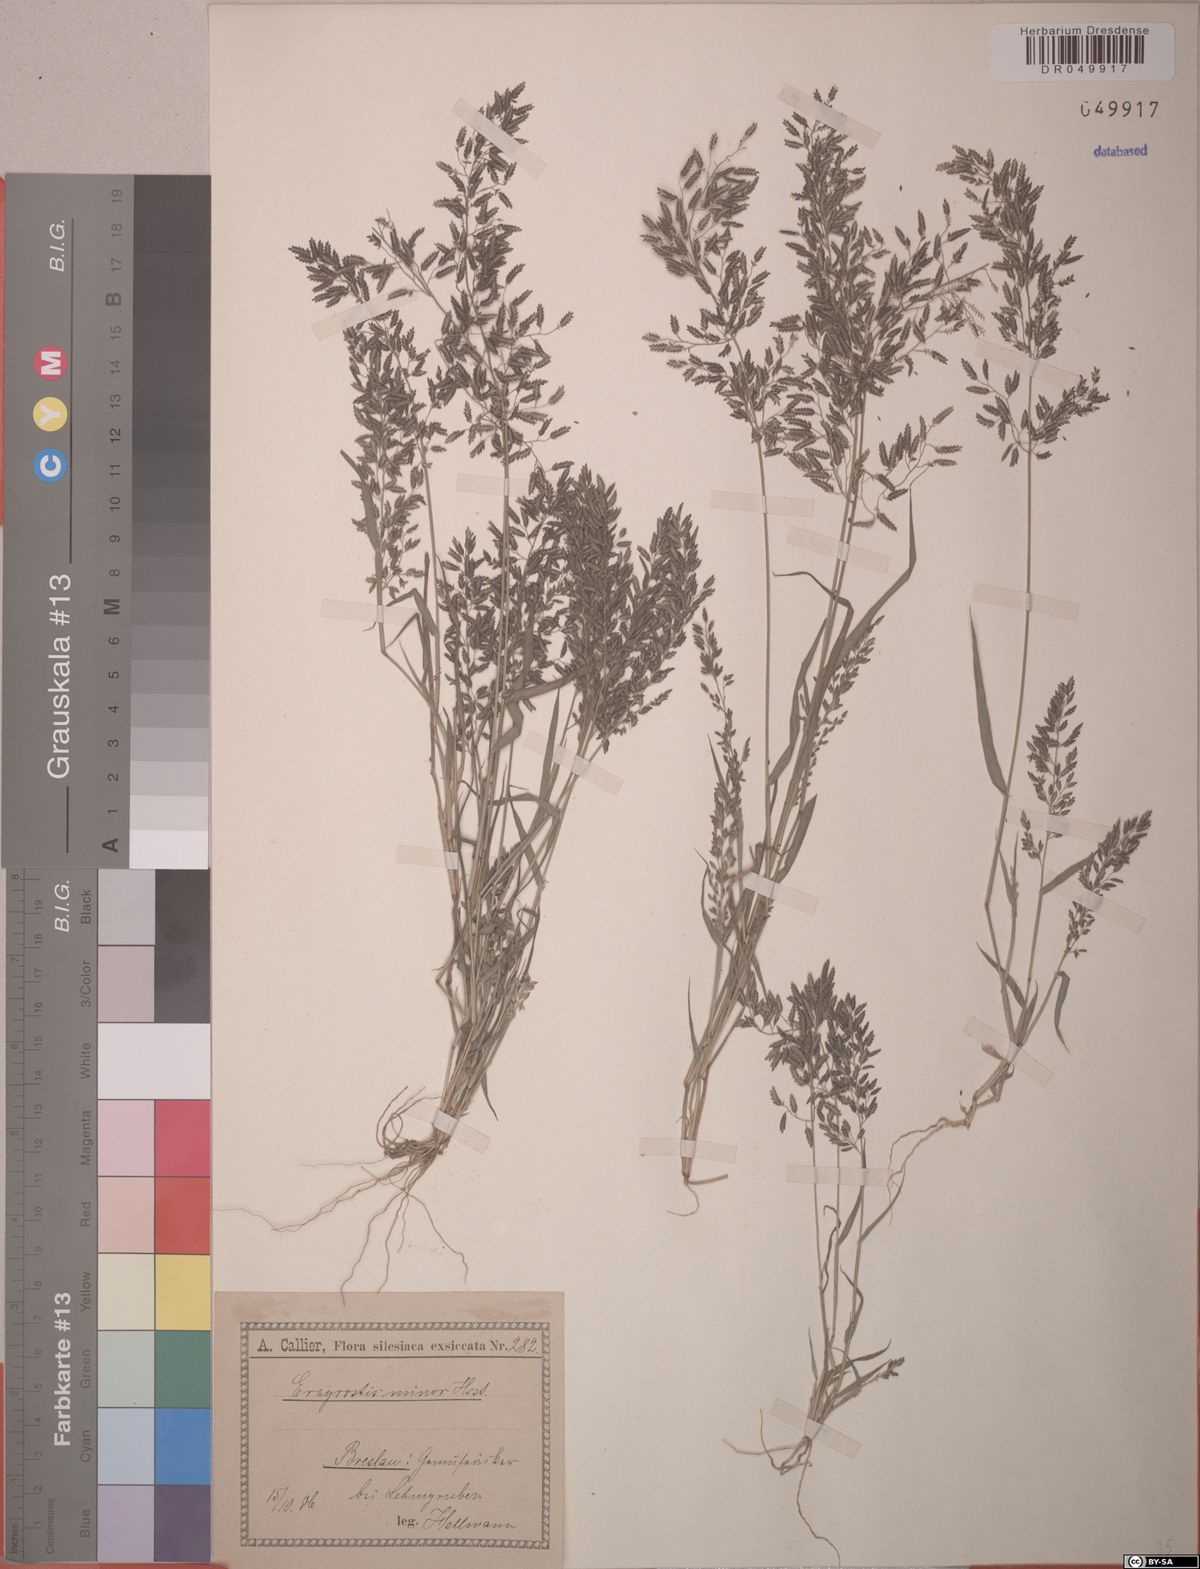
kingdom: Plantae
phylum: Tracheophyta
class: Liliopsida
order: Poales
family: Poaceae
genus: Eragrostis
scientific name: Eragrostis minor
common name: Small love-grass
